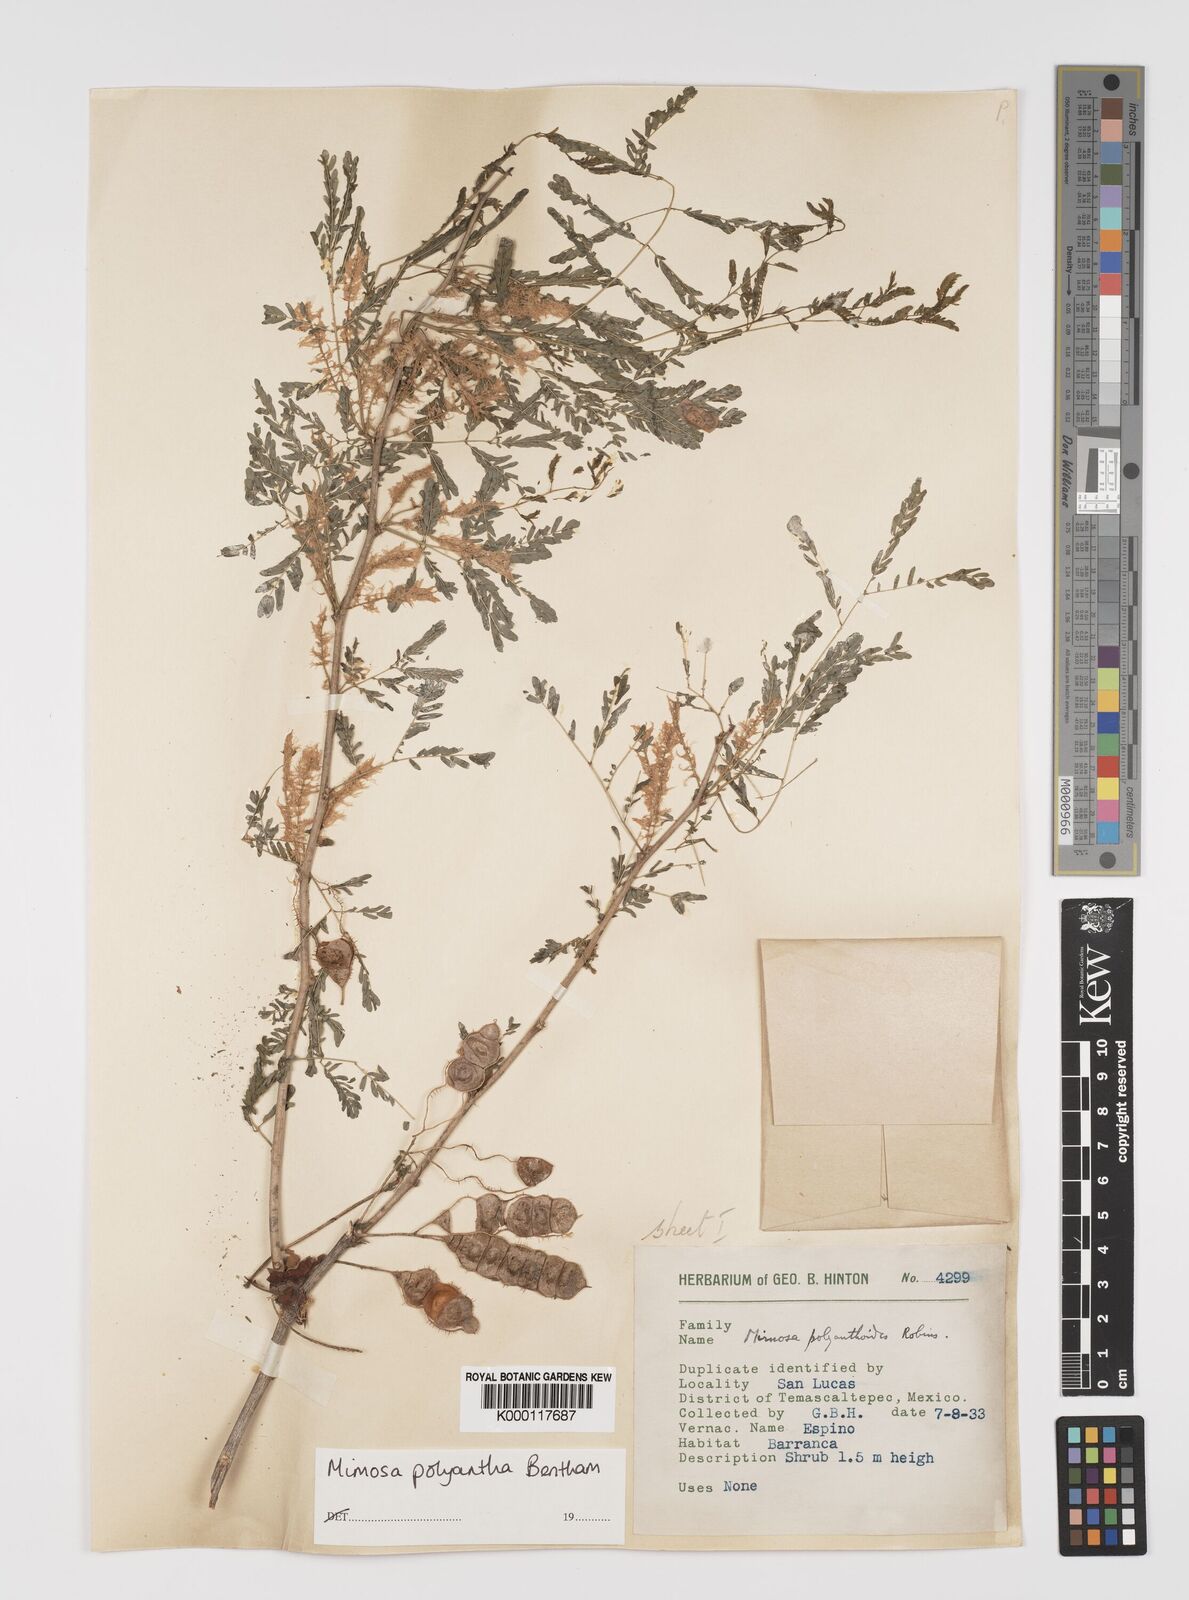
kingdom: Plantae
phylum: Tracheophyta
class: Magnoliopsida
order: Fabales
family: Fabaceae
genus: Mimosa
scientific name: Mimosa polyantha
